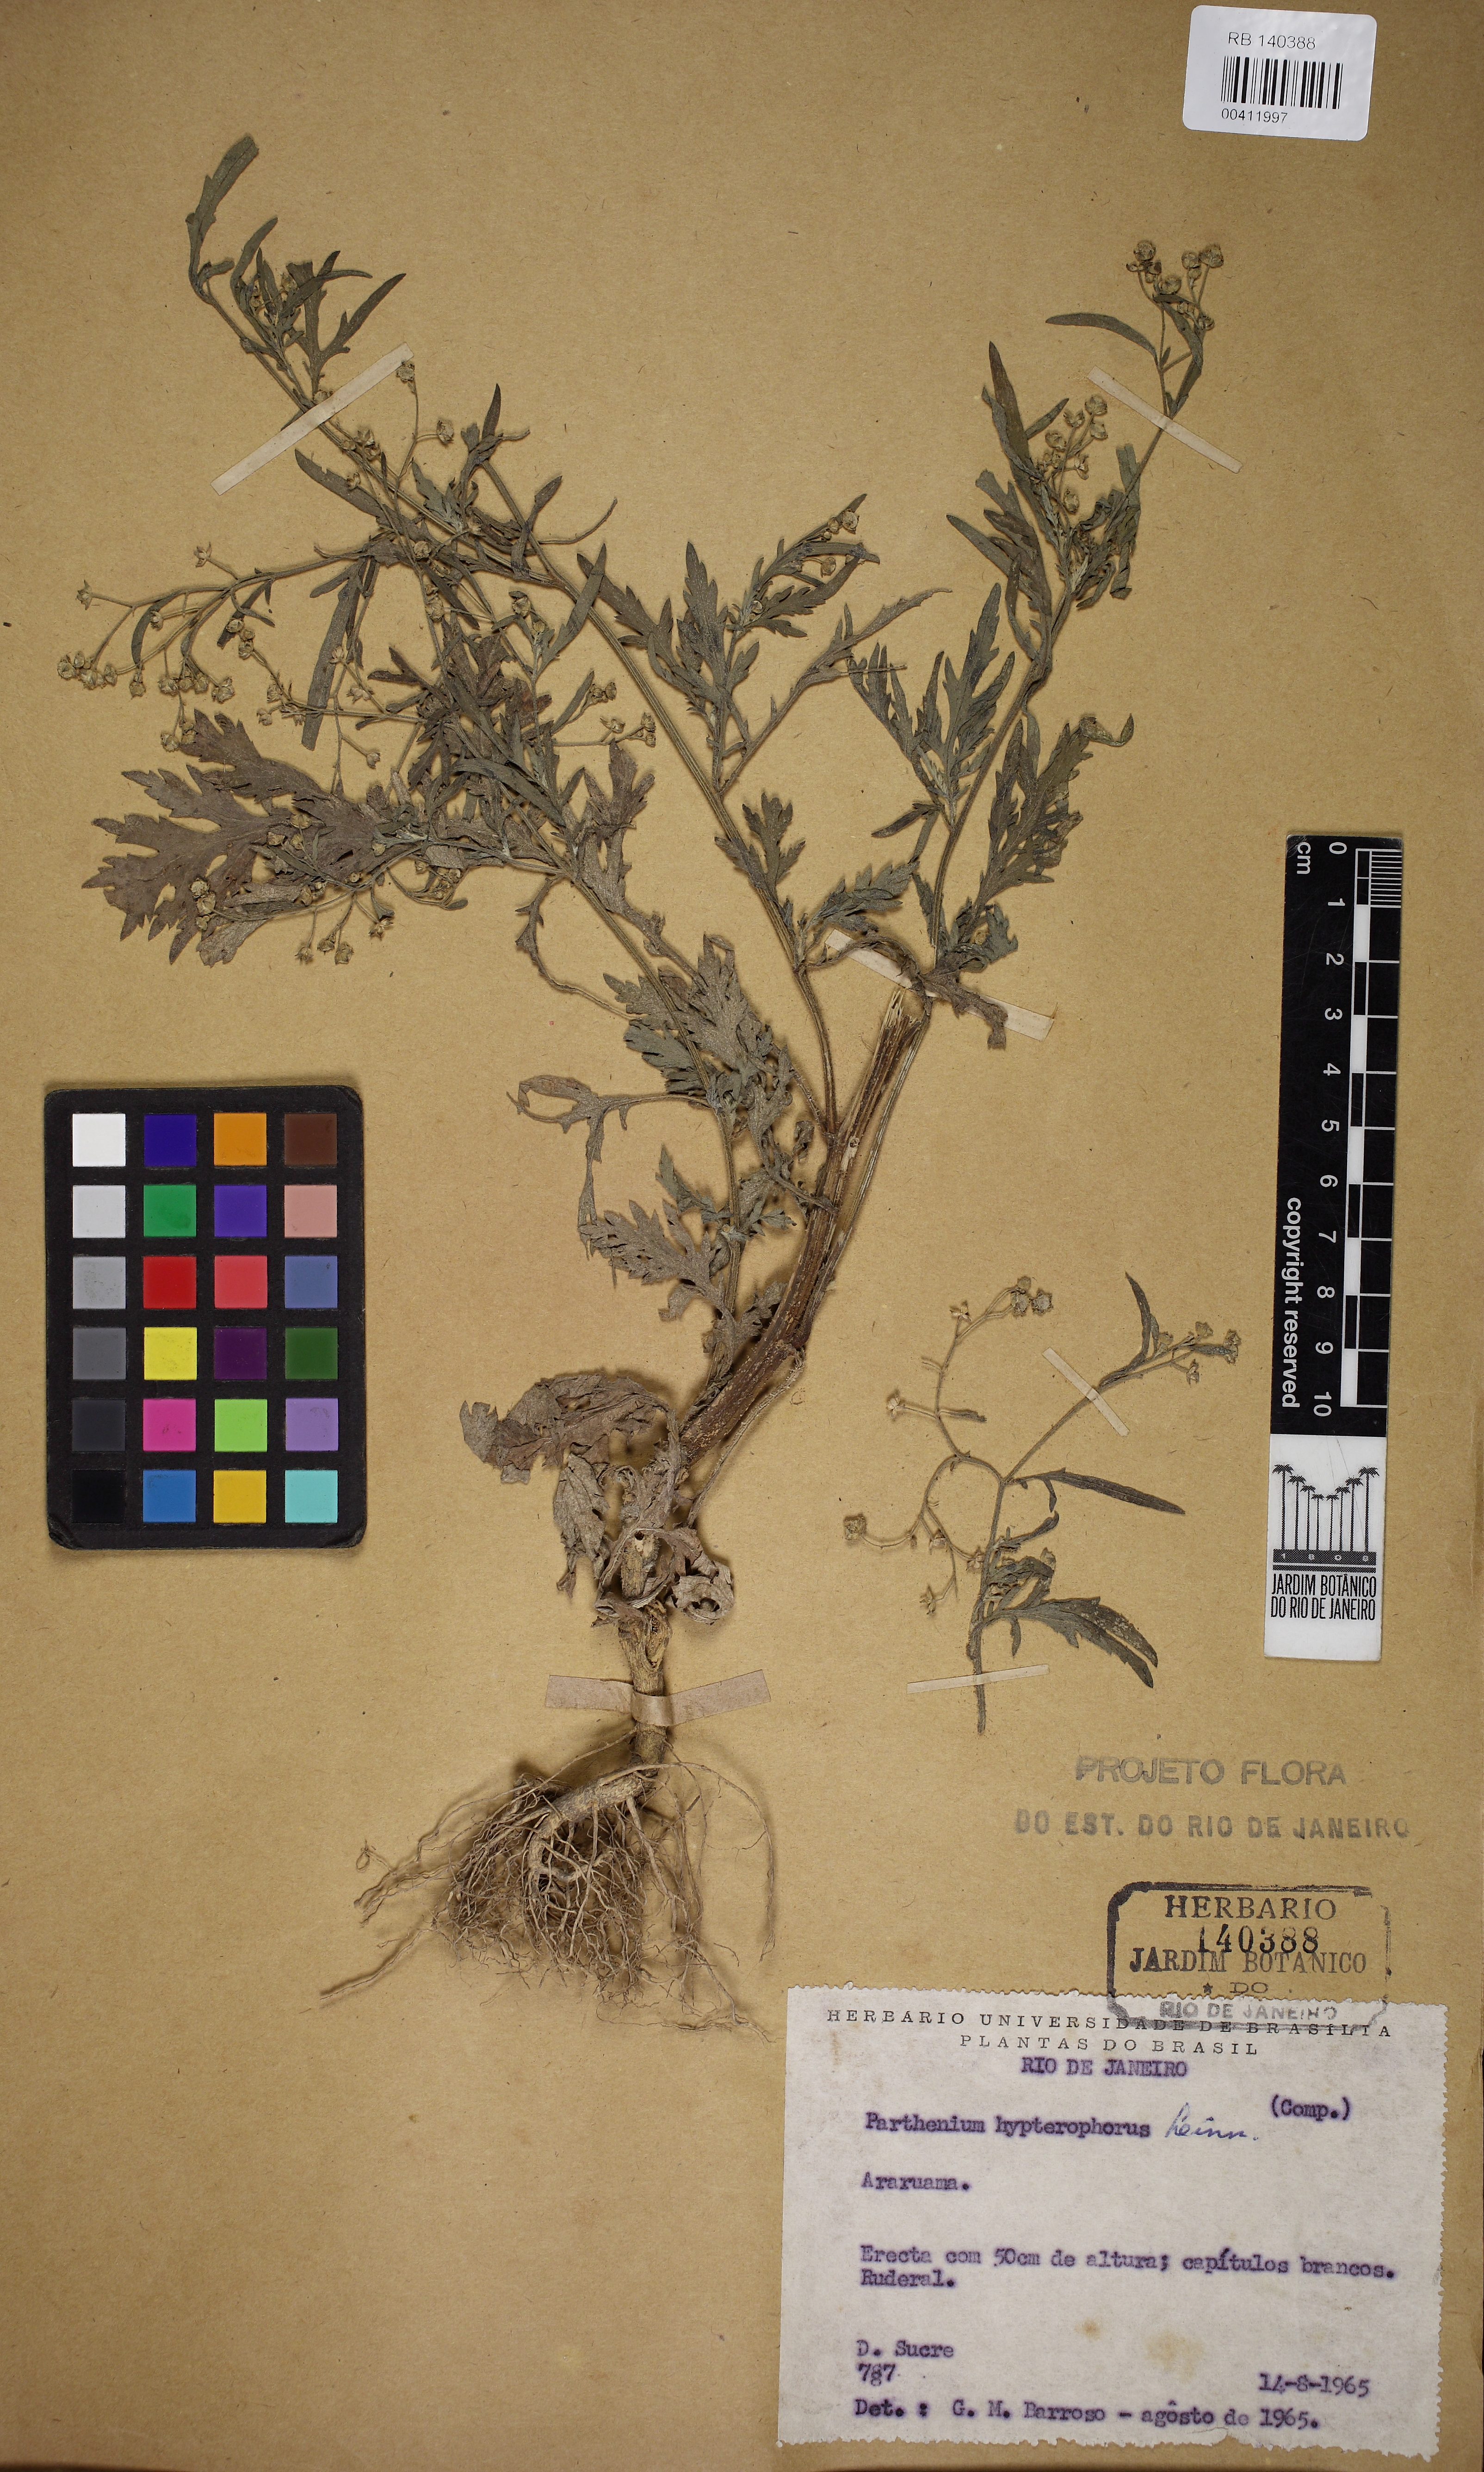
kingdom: Plantae
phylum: Tracheophyta
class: Magnoliopsida
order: Asterales
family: Asteraceae
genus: Parthenium
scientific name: Parthenium hysterophorus
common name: Santa maria feverfew
